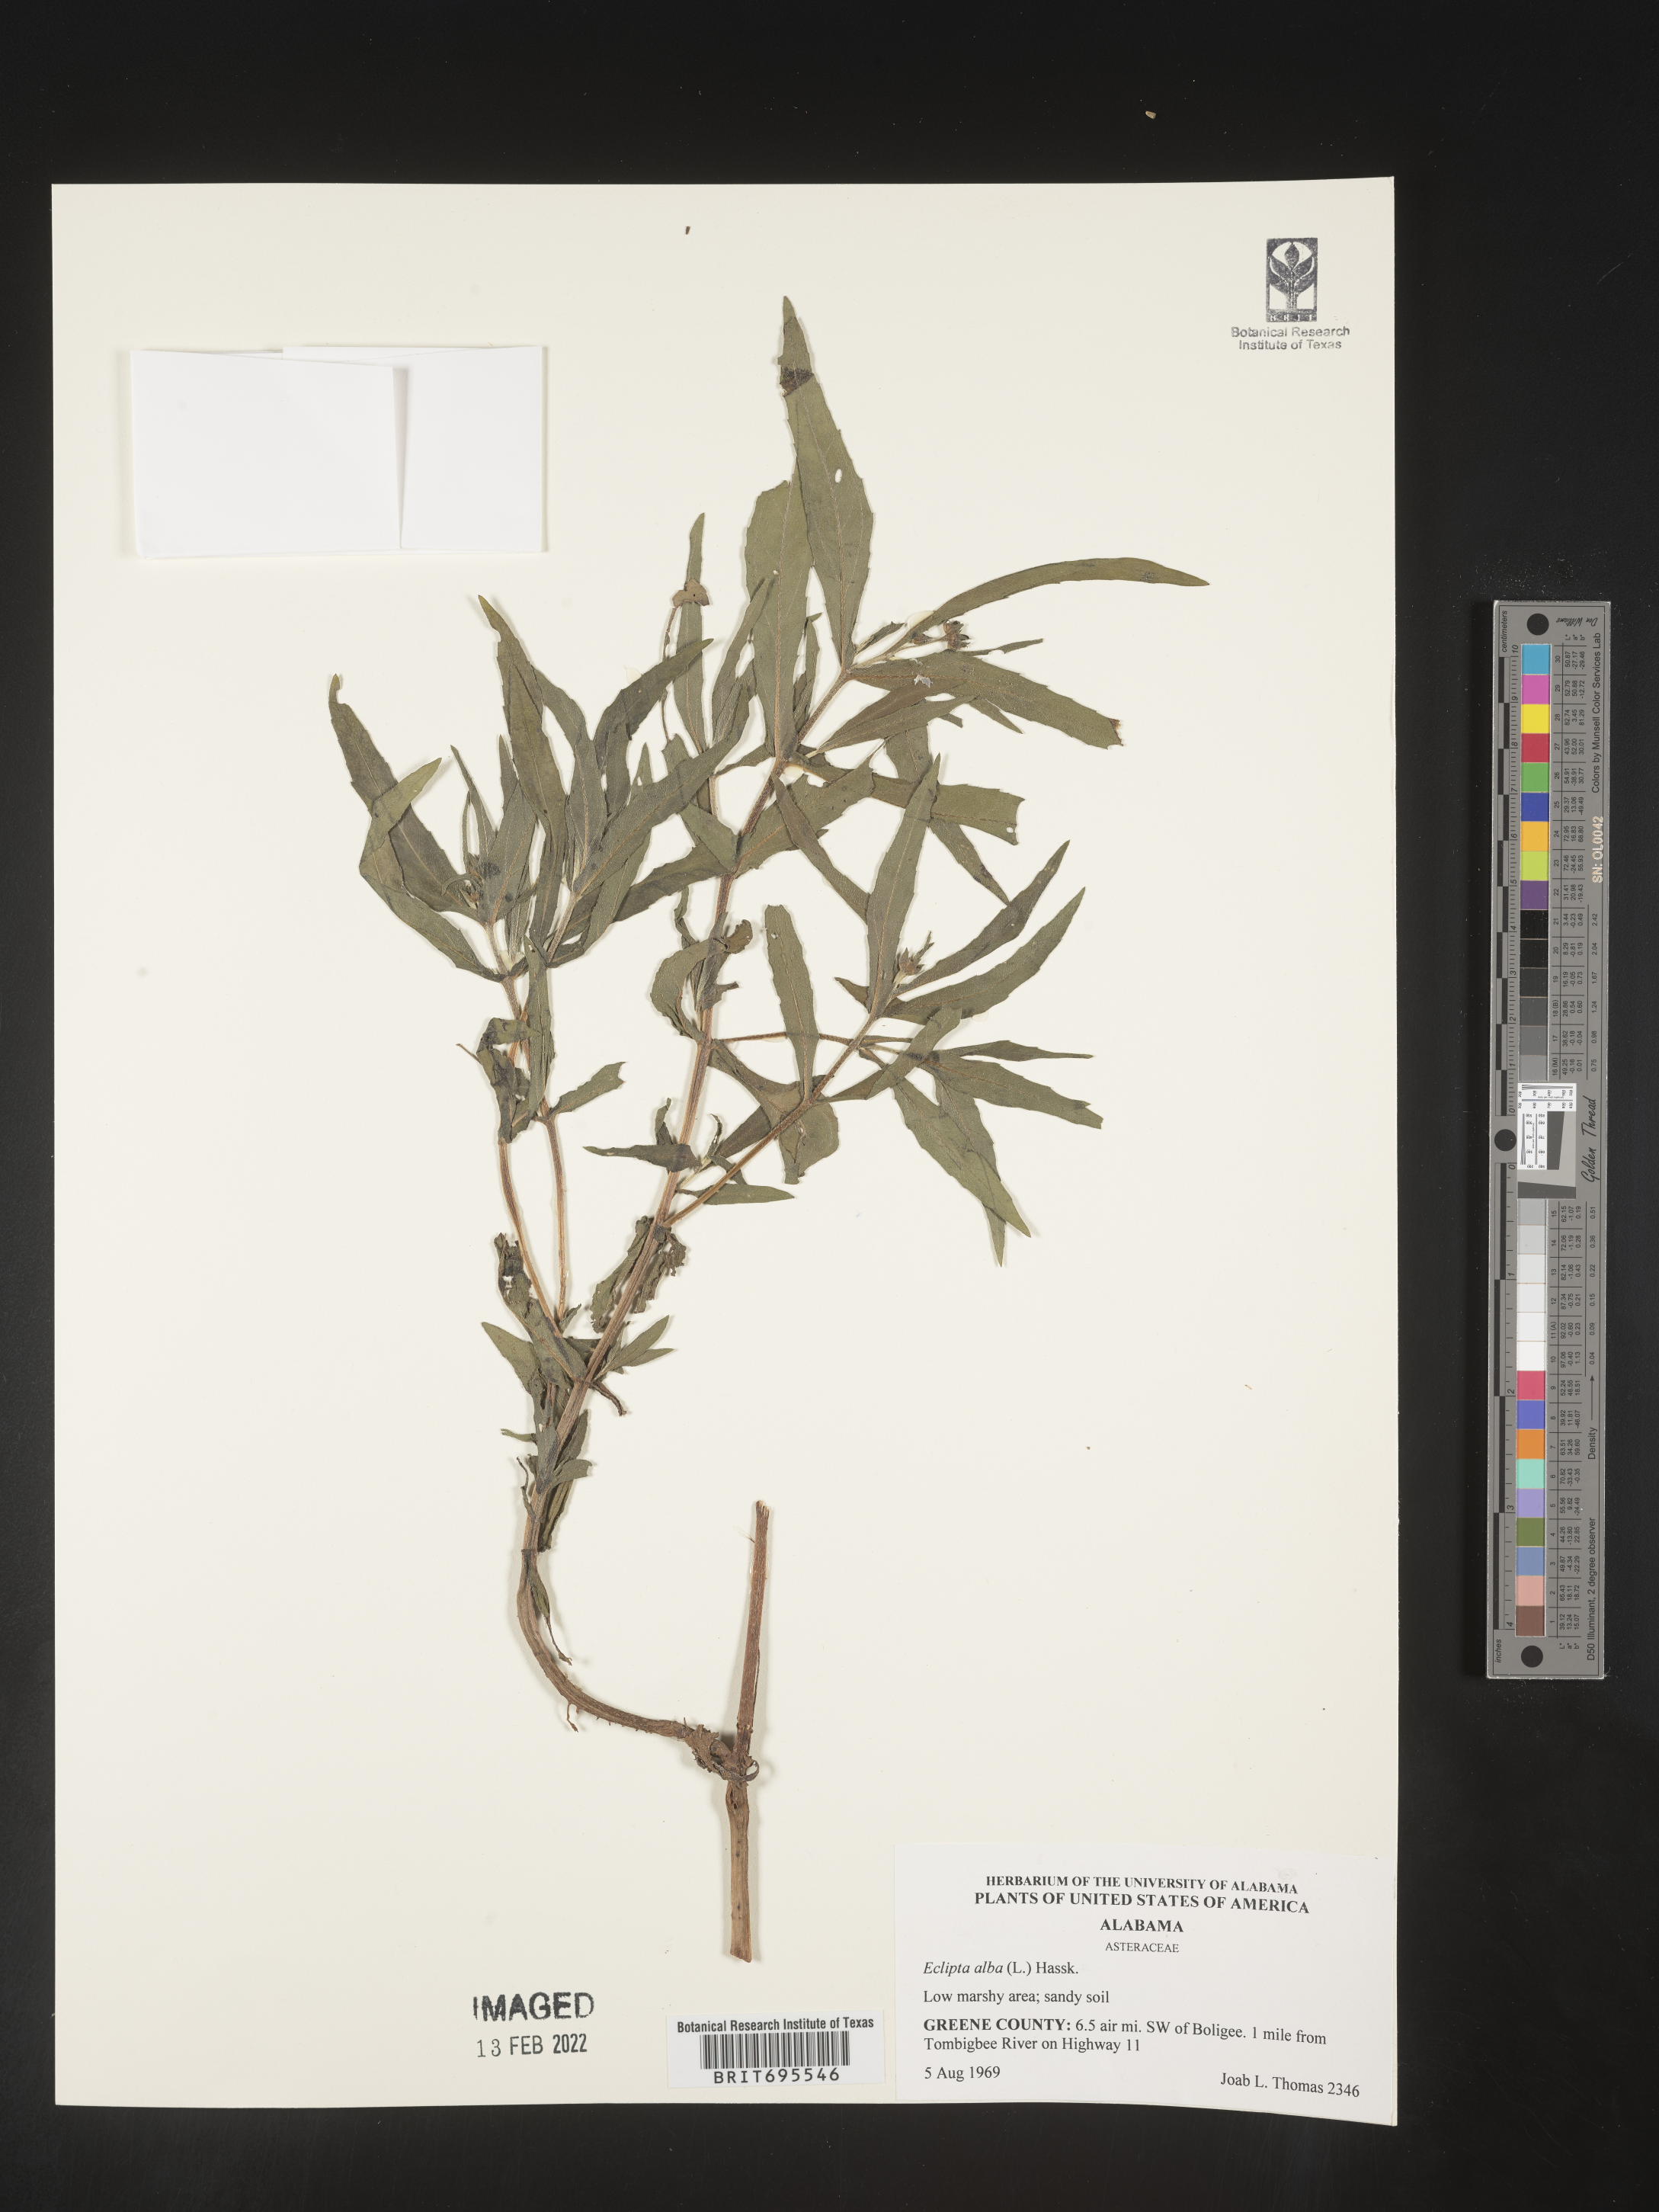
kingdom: Plantae
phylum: Tracheophyta
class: Magnoliopsida
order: Asterales
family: Asteraceae
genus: Eclipta
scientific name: Eclipta alba
